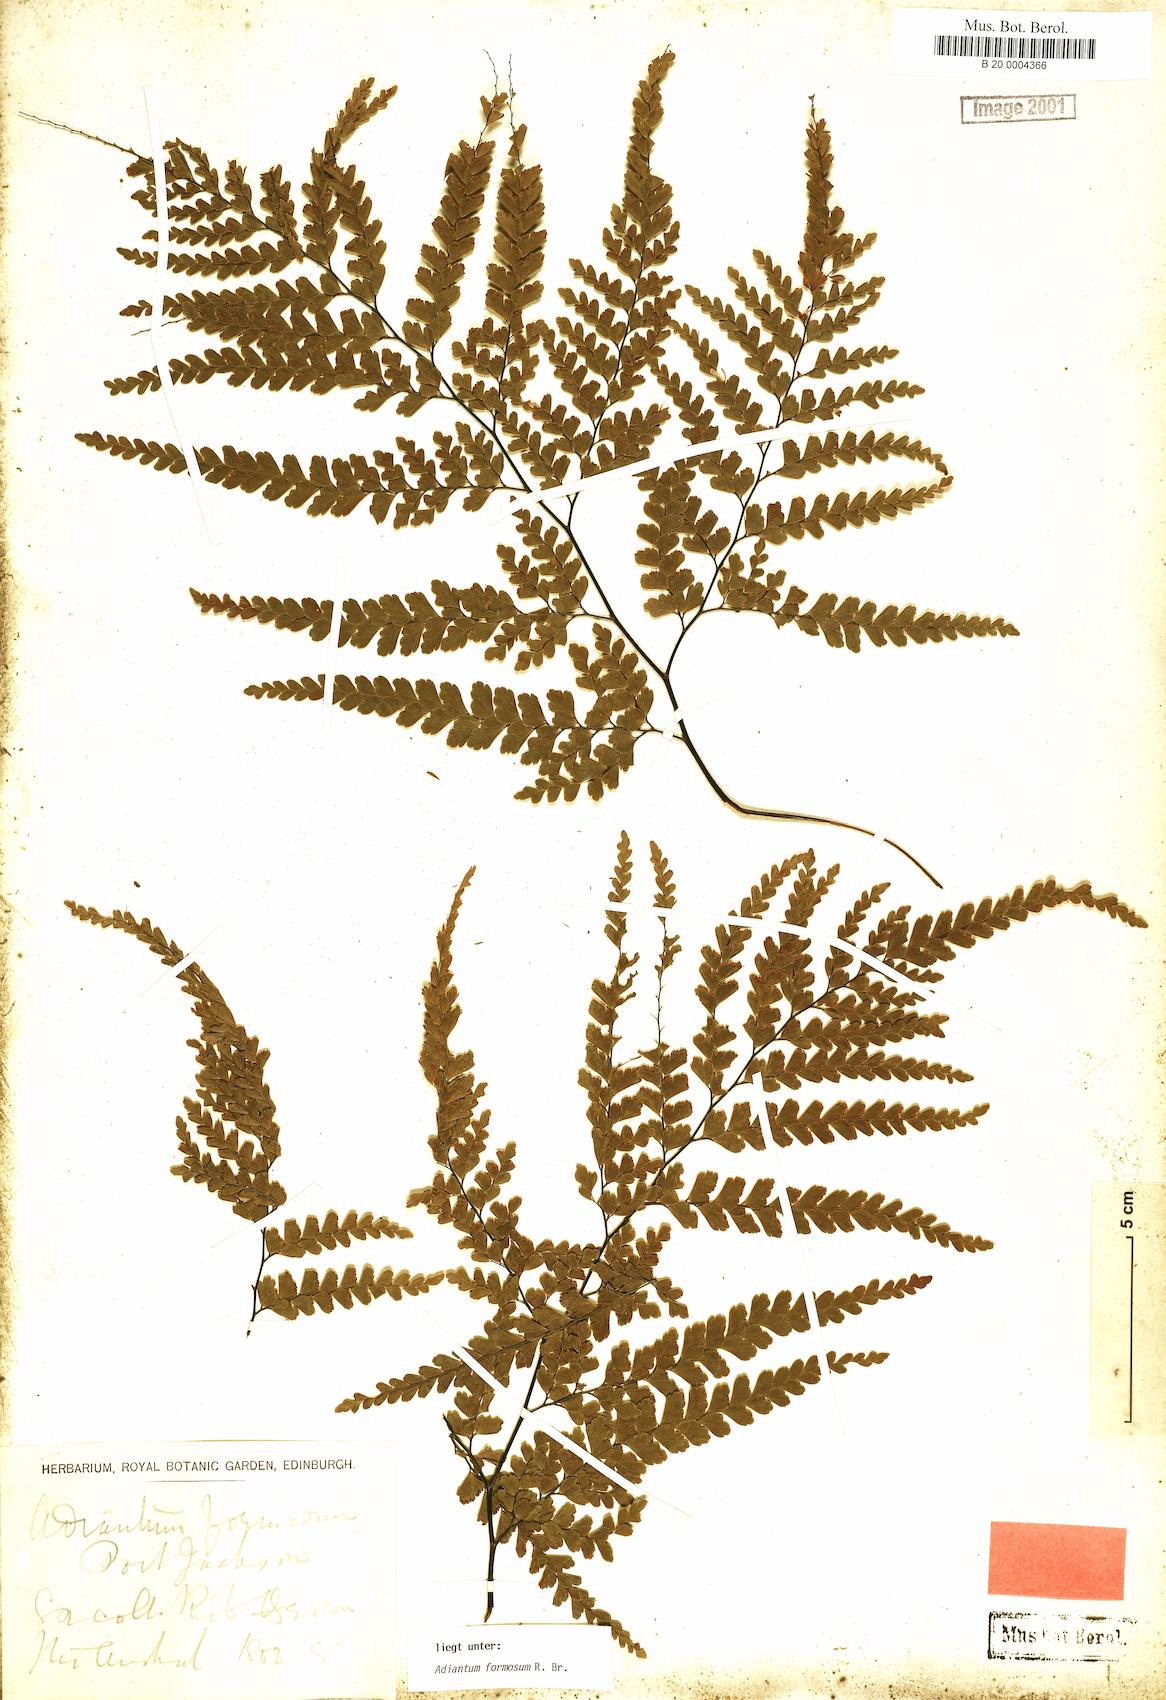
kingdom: Plantae
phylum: Tracheophyta
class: Polypodiopsida
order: Polypodiales
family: Pteridaceae
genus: Adiantum
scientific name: Adiantum formosum
